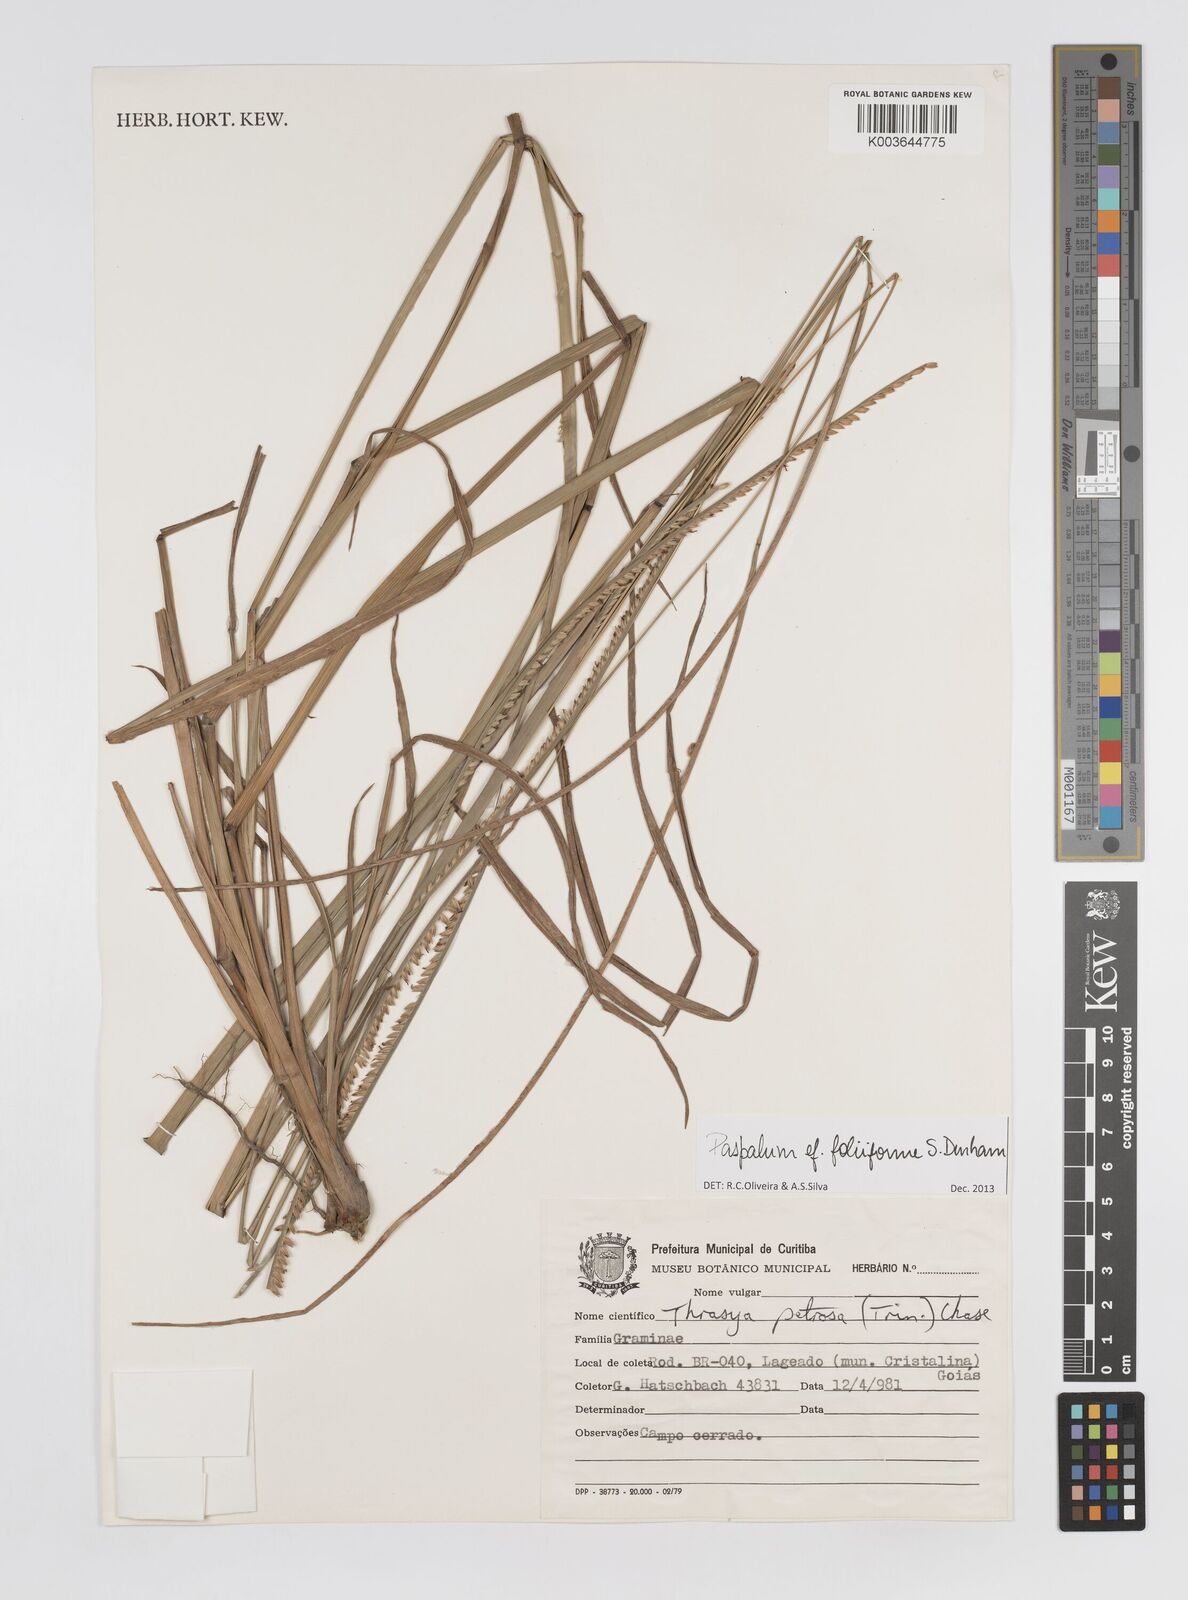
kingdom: Plantae
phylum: Tracheophyta
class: Liliopsida
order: Poales
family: Poaceae
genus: Paspalum
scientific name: Paspalum foliiforme
